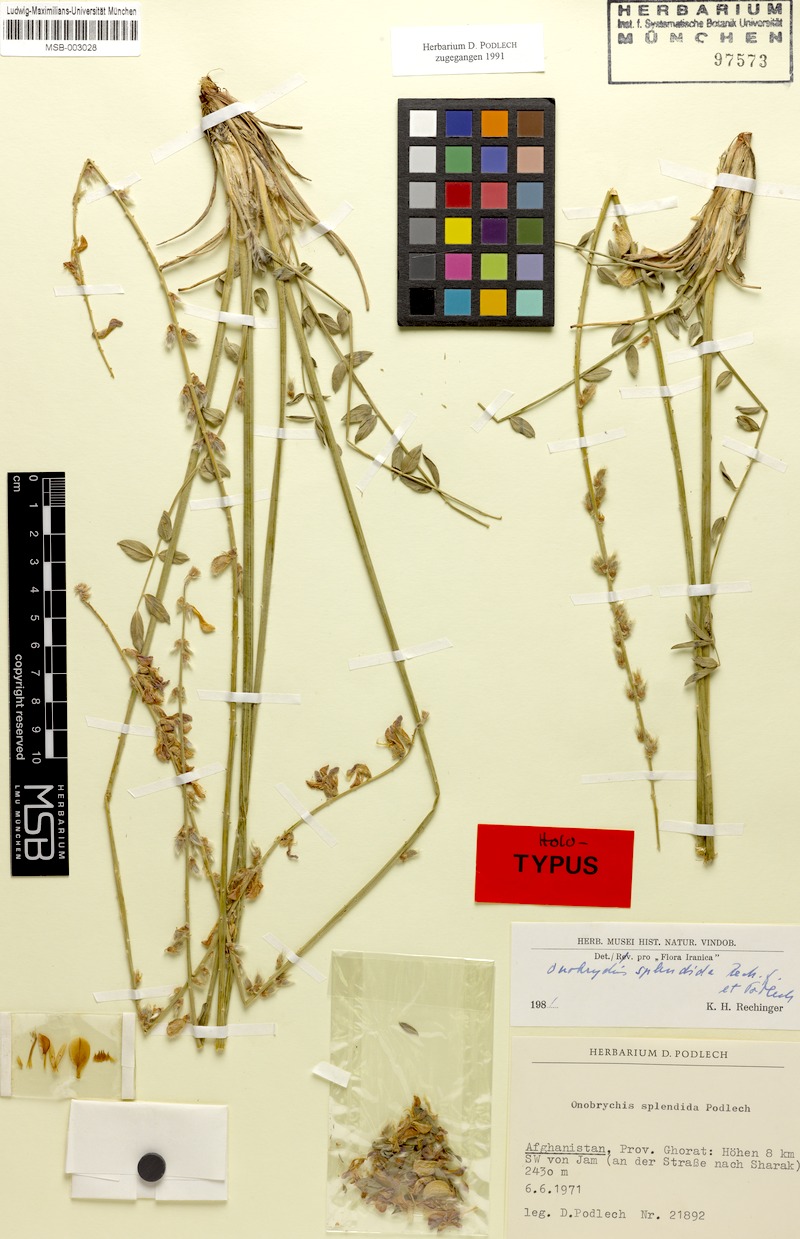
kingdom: Plantae
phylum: Tracheophyta
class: Magnoliopsida
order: Fabales
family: Fabaceae
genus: Onobrychis
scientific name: Onobrychis splendida
